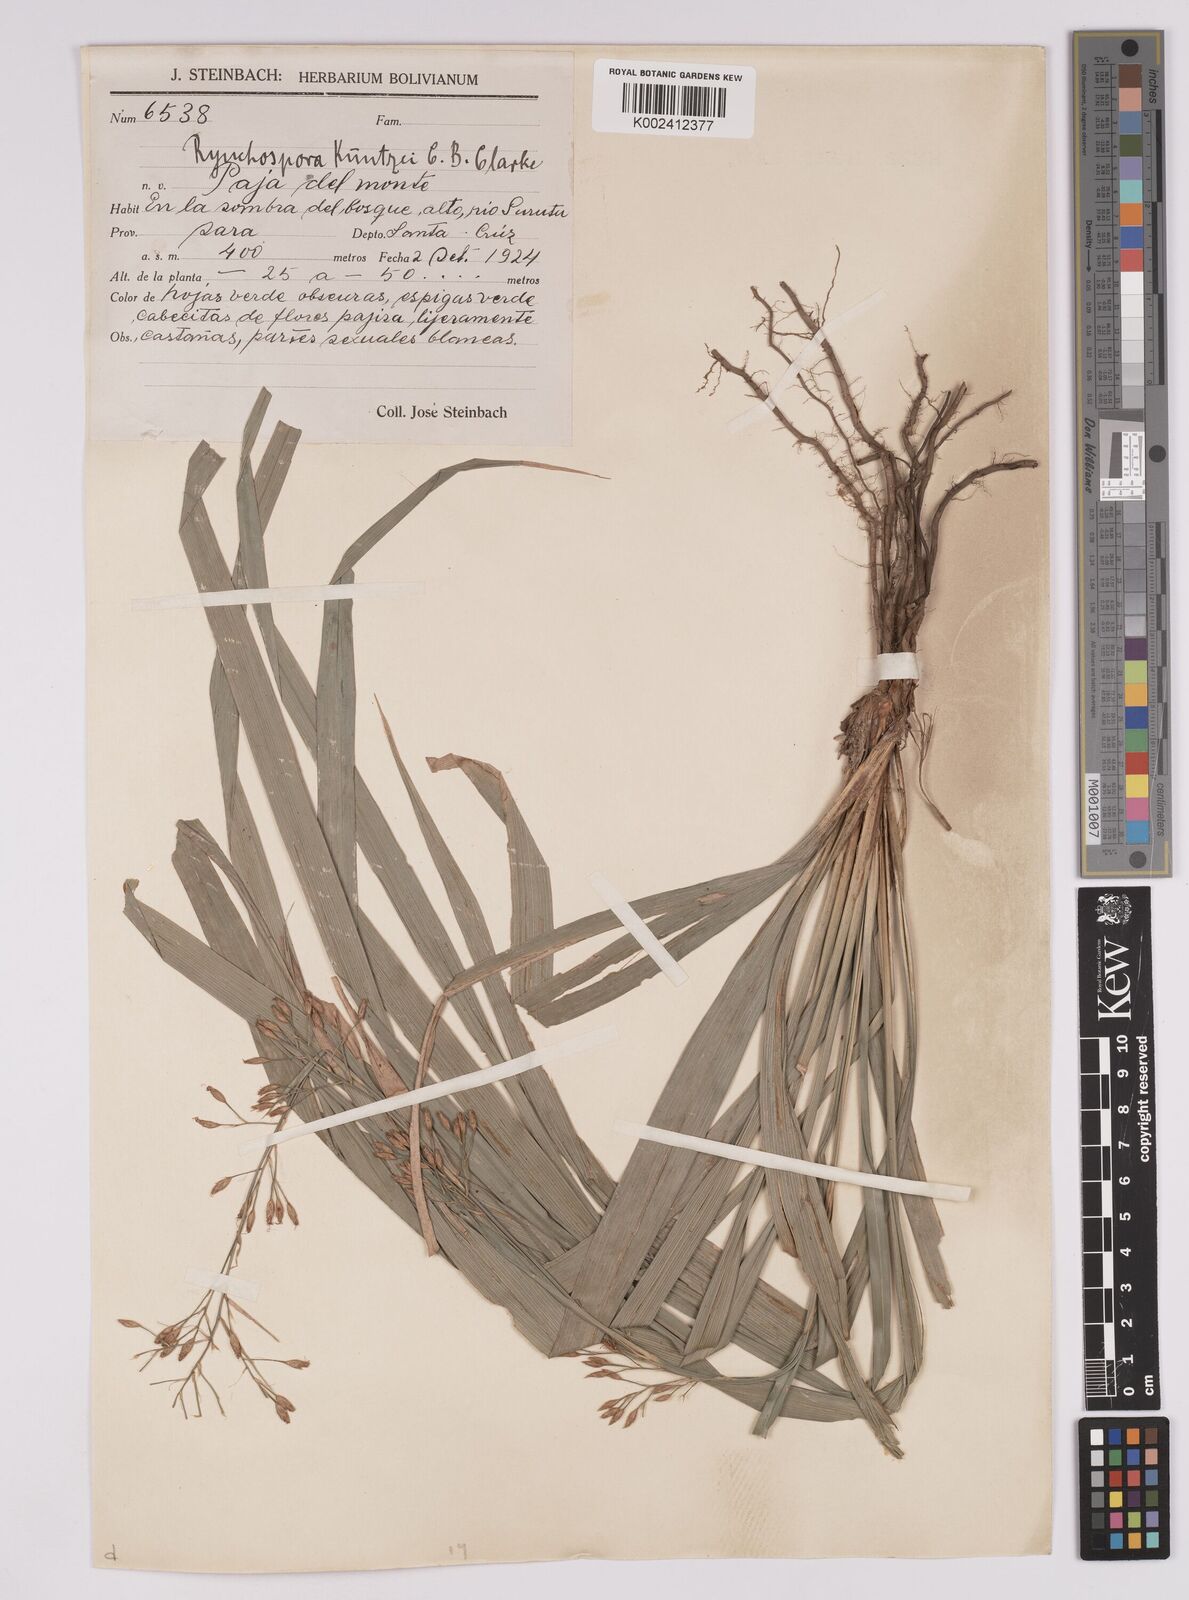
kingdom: Plantae
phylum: Tracheophyta
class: Liliopsida
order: Poales
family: Cyperaceae
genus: Rhynchospora
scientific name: Rhynchospora umbraticola
